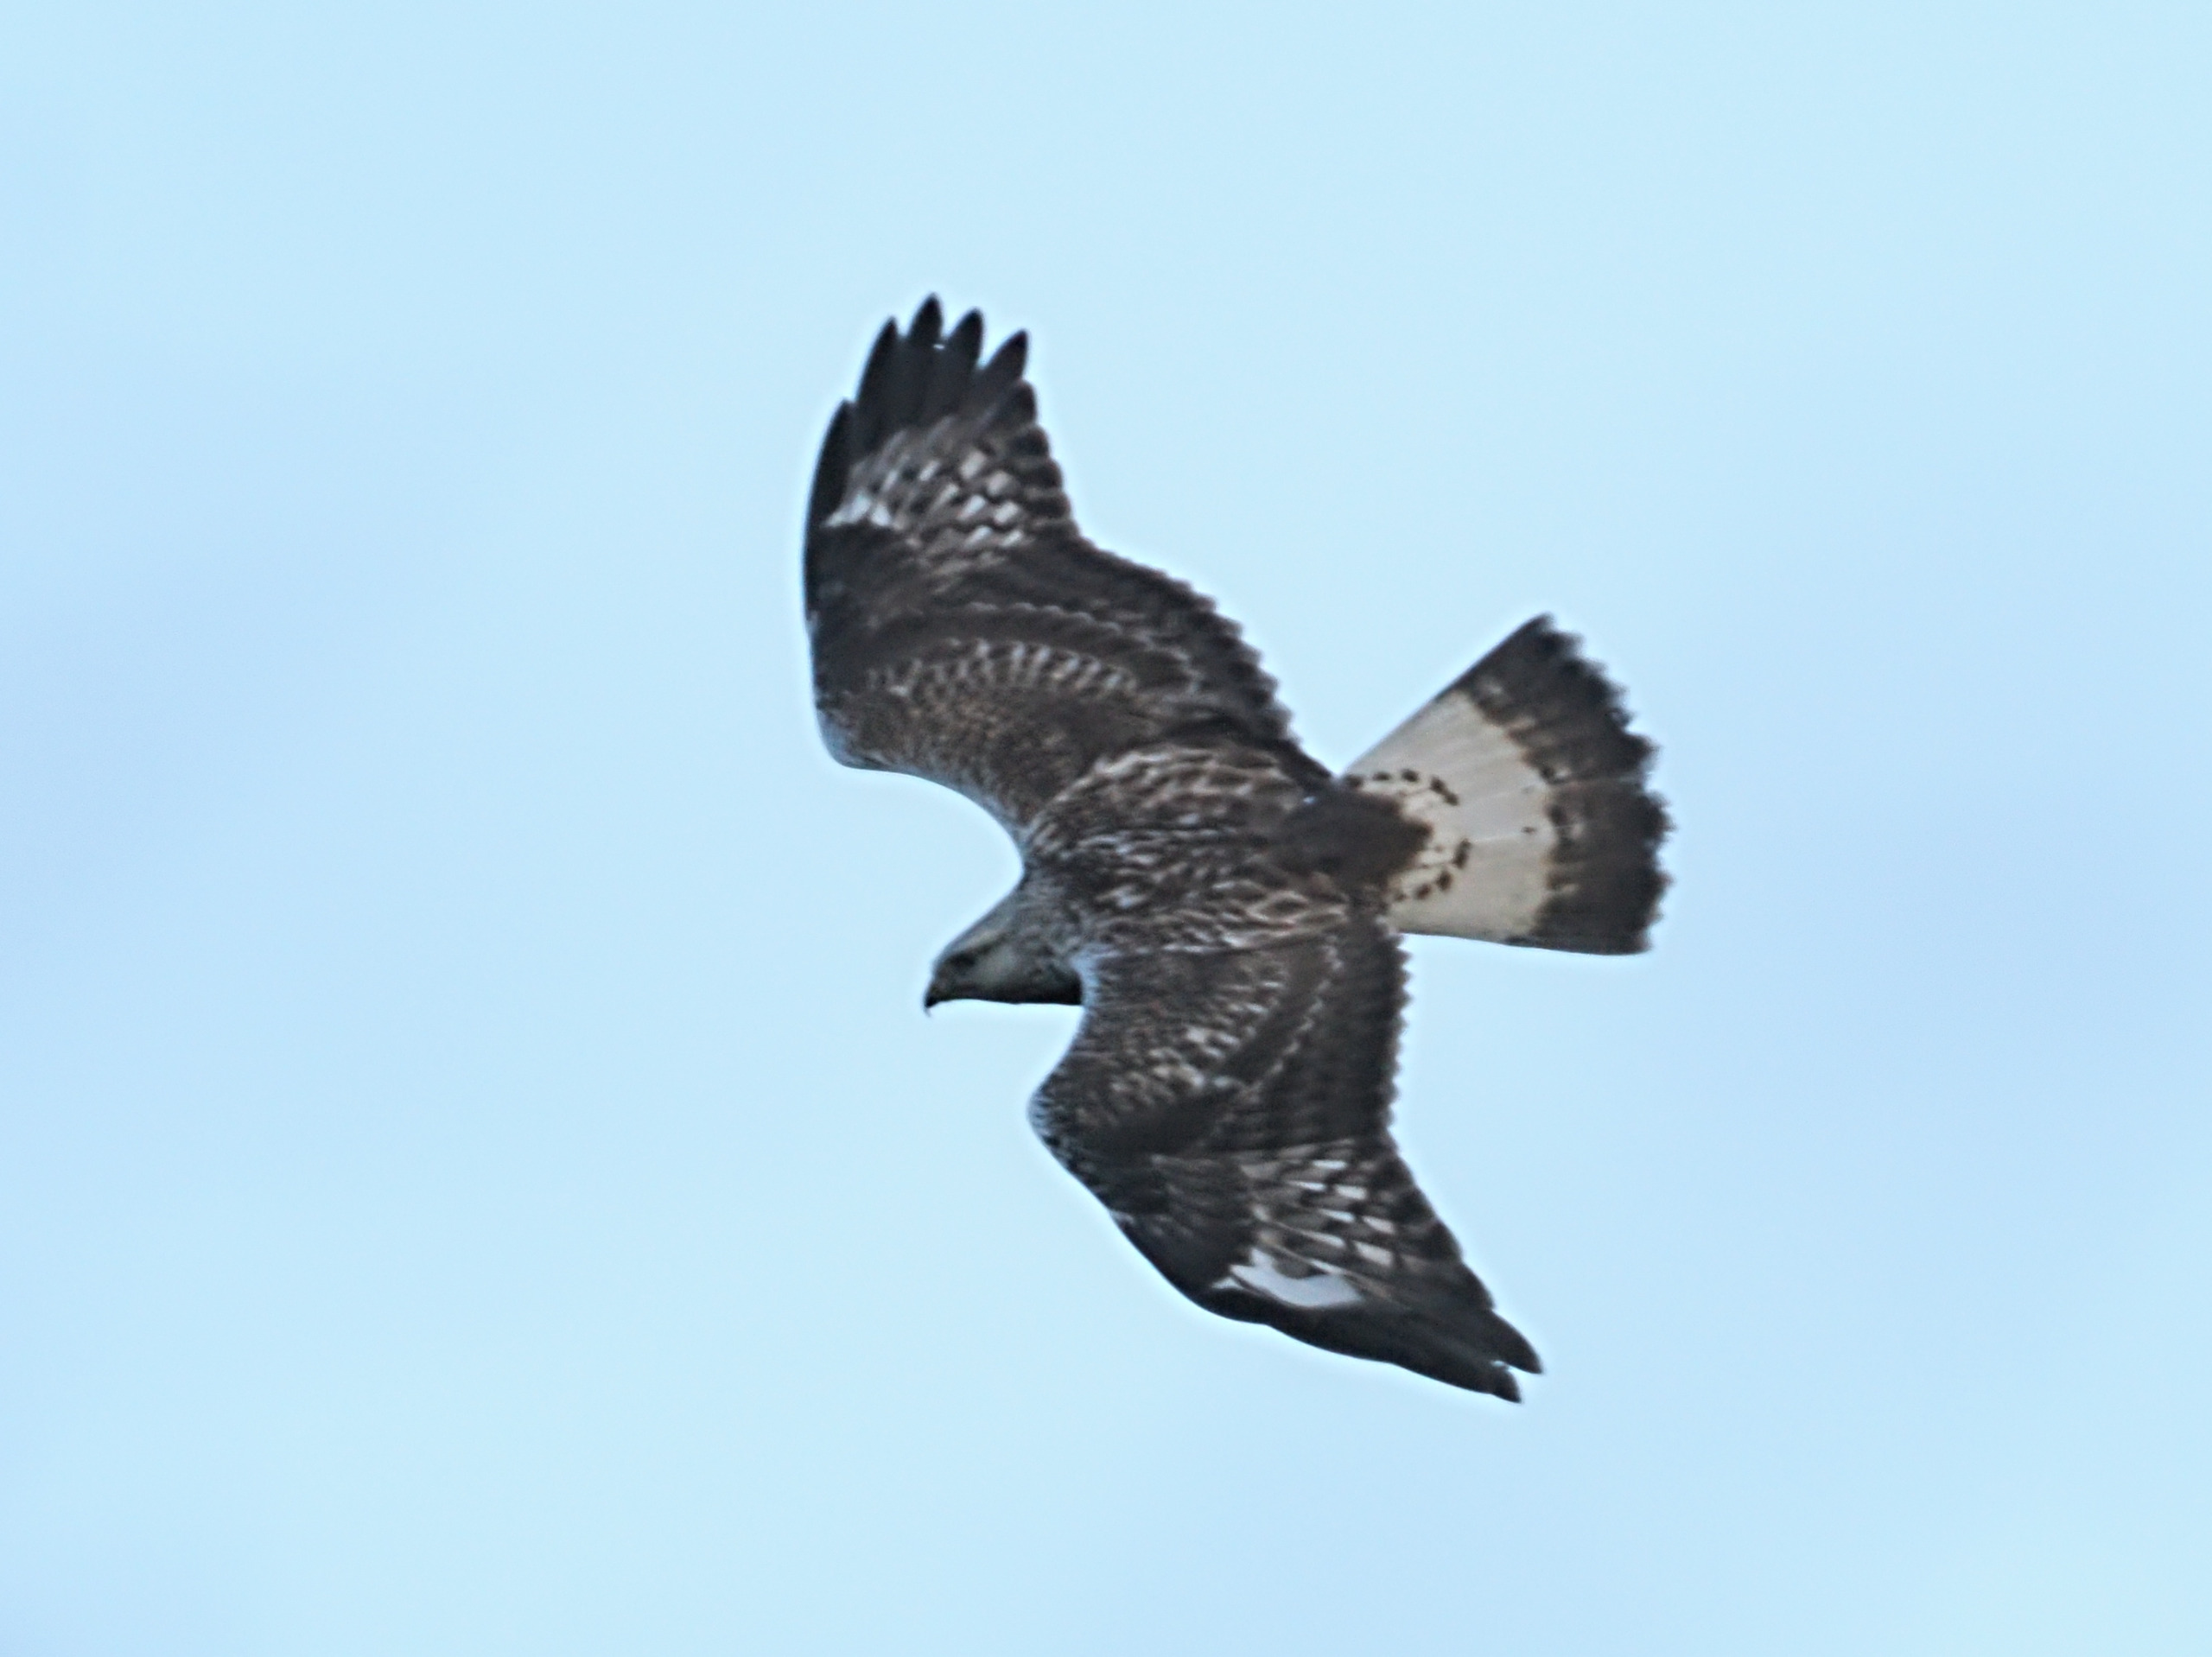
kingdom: Animalia
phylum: Chordata
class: Aves
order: Accipitriformes
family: Accipitridae
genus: Buteo
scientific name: Buteo lagopus
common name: Fjeldvåge
